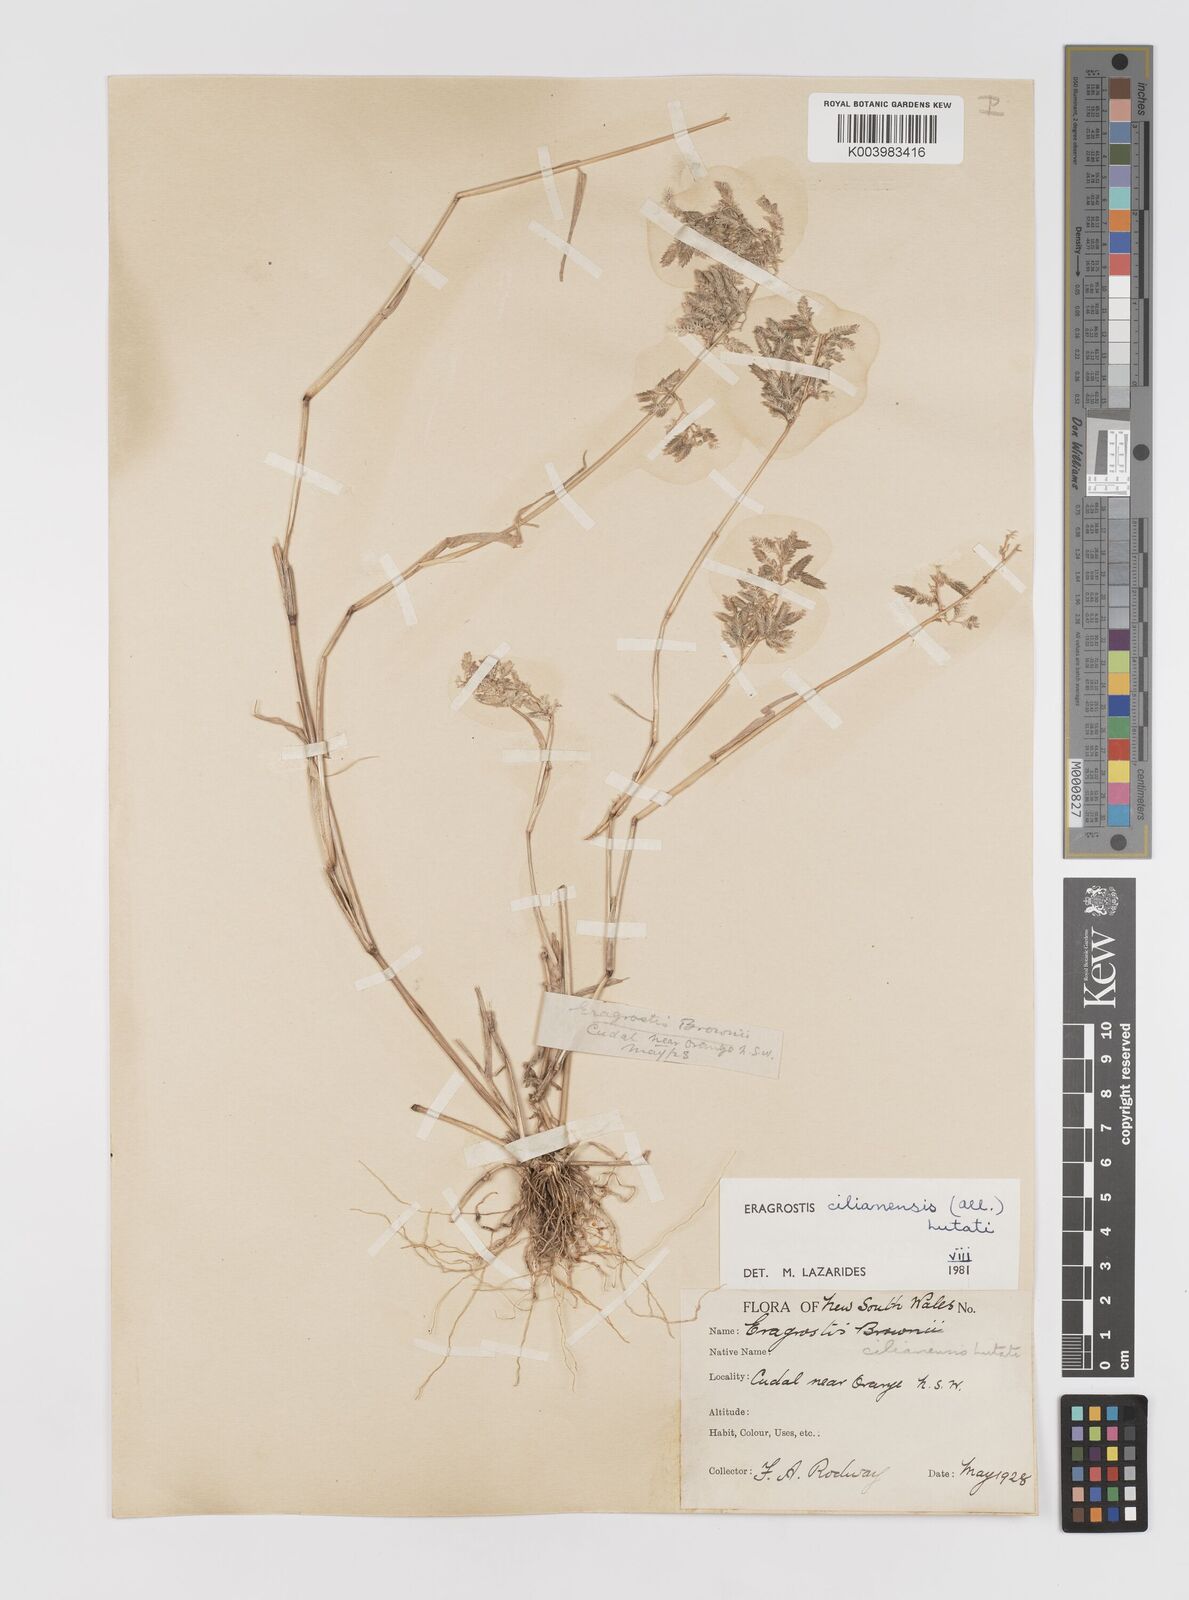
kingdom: Plantae
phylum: Tracheophyta
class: Liliopsida
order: Poales
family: Poaceae
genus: Eragrostis
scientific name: Eragrostis cilianensis
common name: Stinkgrass
